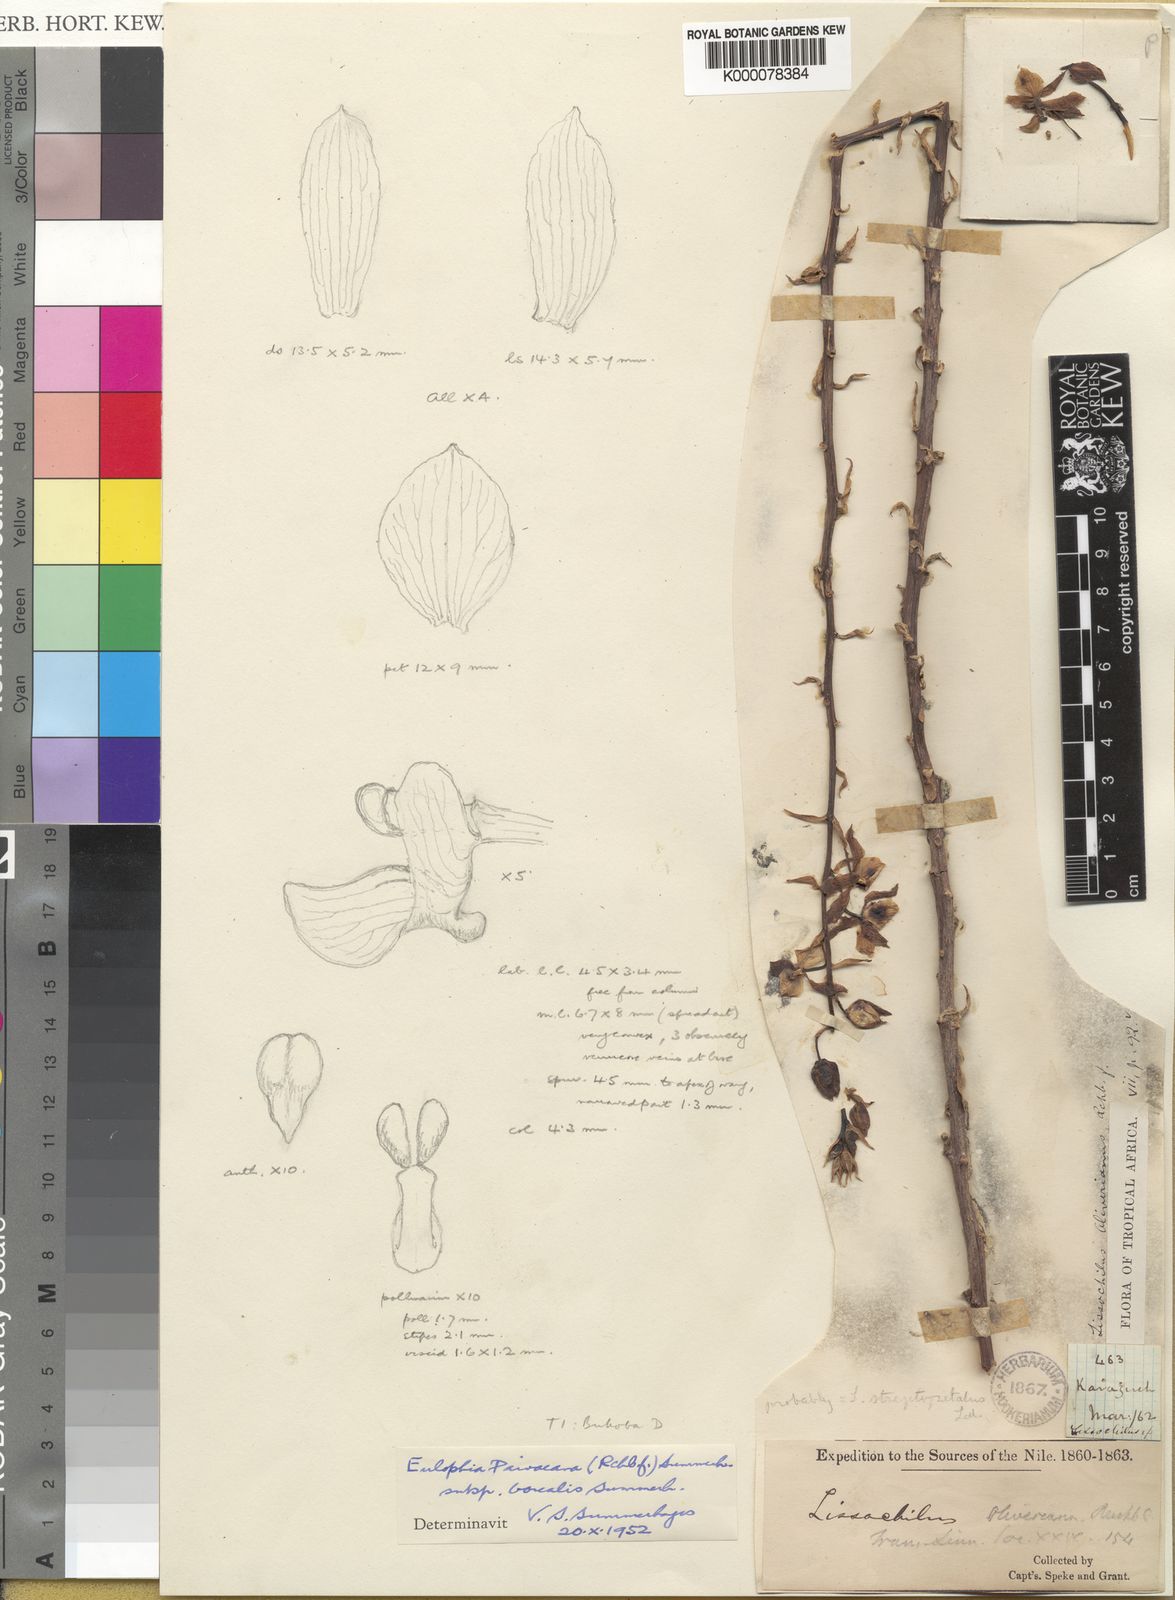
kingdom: Plantae
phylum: Tracheophyta
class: Liliopsida
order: Asparagales
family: Orchidaceae
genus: Eulophia
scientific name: Eulophia streptopetala
